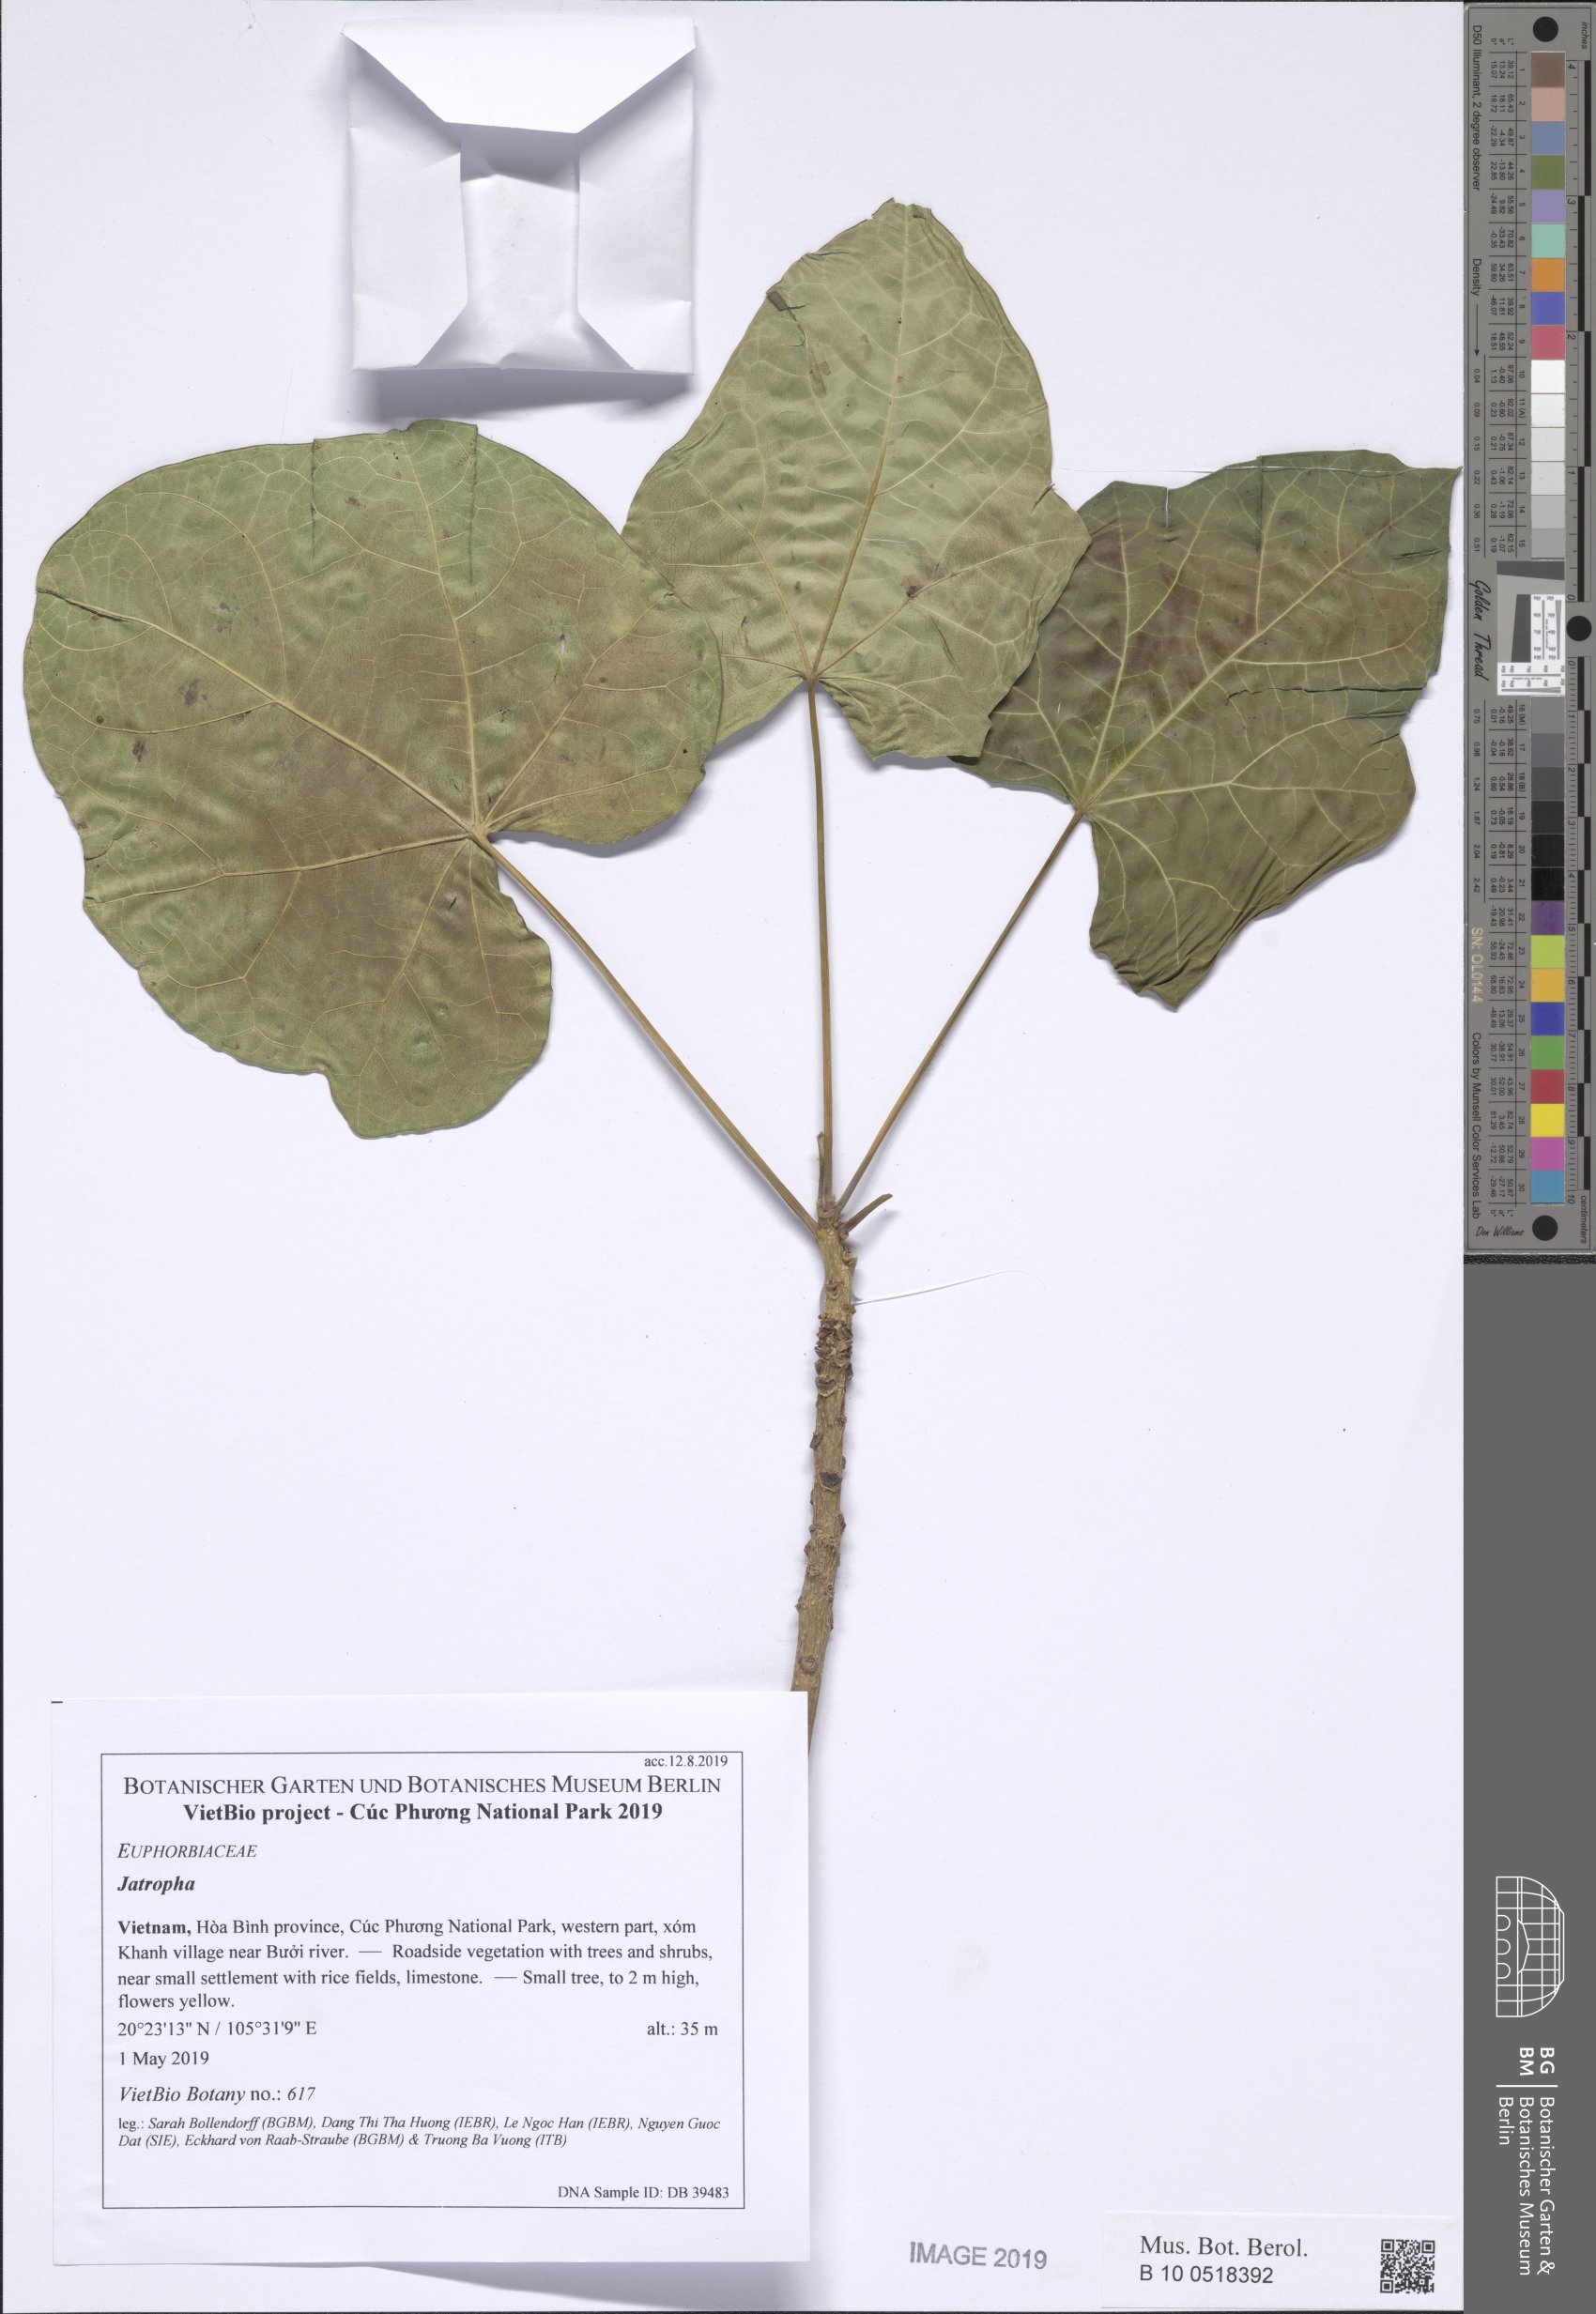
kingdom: Plantae
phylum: Tracheophyta
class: Magnoliopsida
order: Malpighiales
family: Euphorbiaceae
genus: Jatropha
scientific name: Jatropha curcas
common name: Barbados nut
